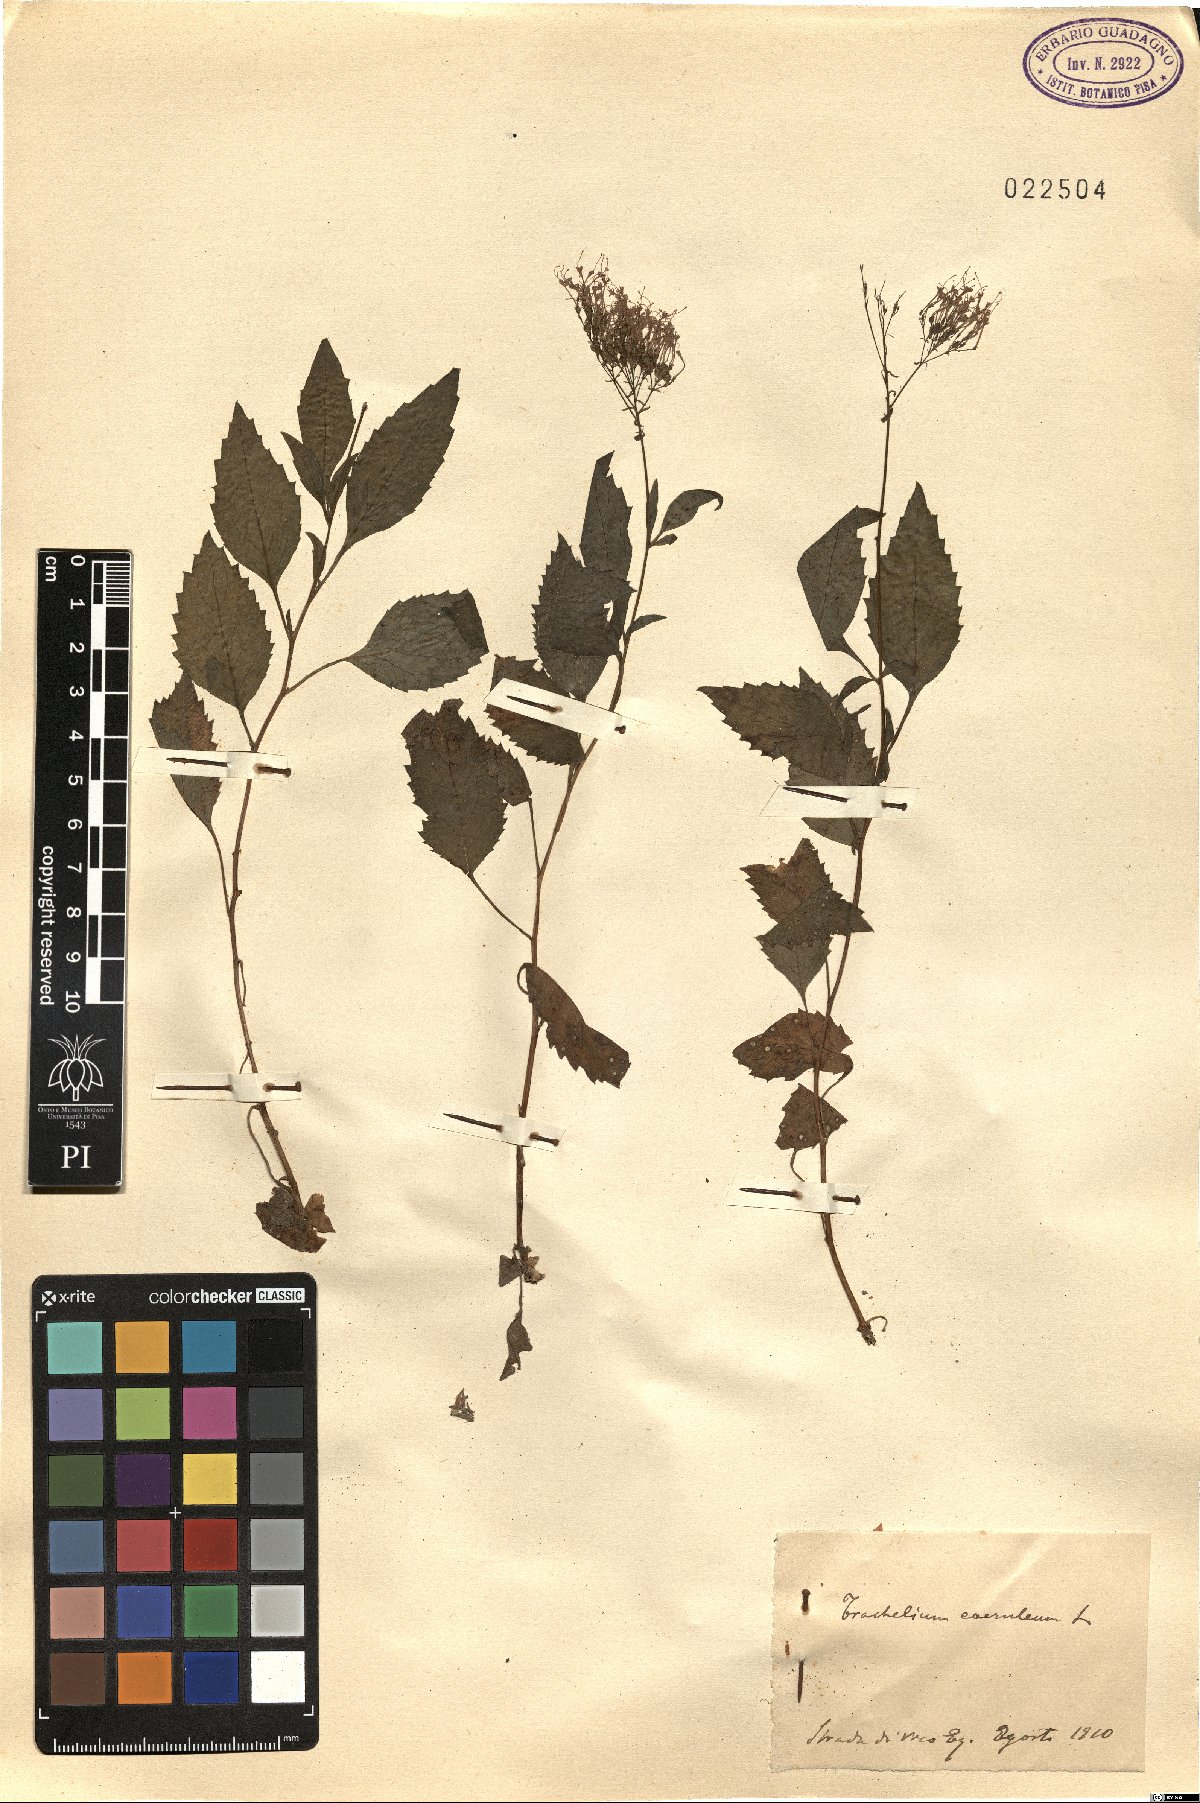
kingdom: Plantae
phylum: Tracheophyta
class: Magnoliopsida
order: Asterales
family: Campanulaceae
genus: Trachelium
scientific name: Trachelium caeruleum
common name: Throatwort
